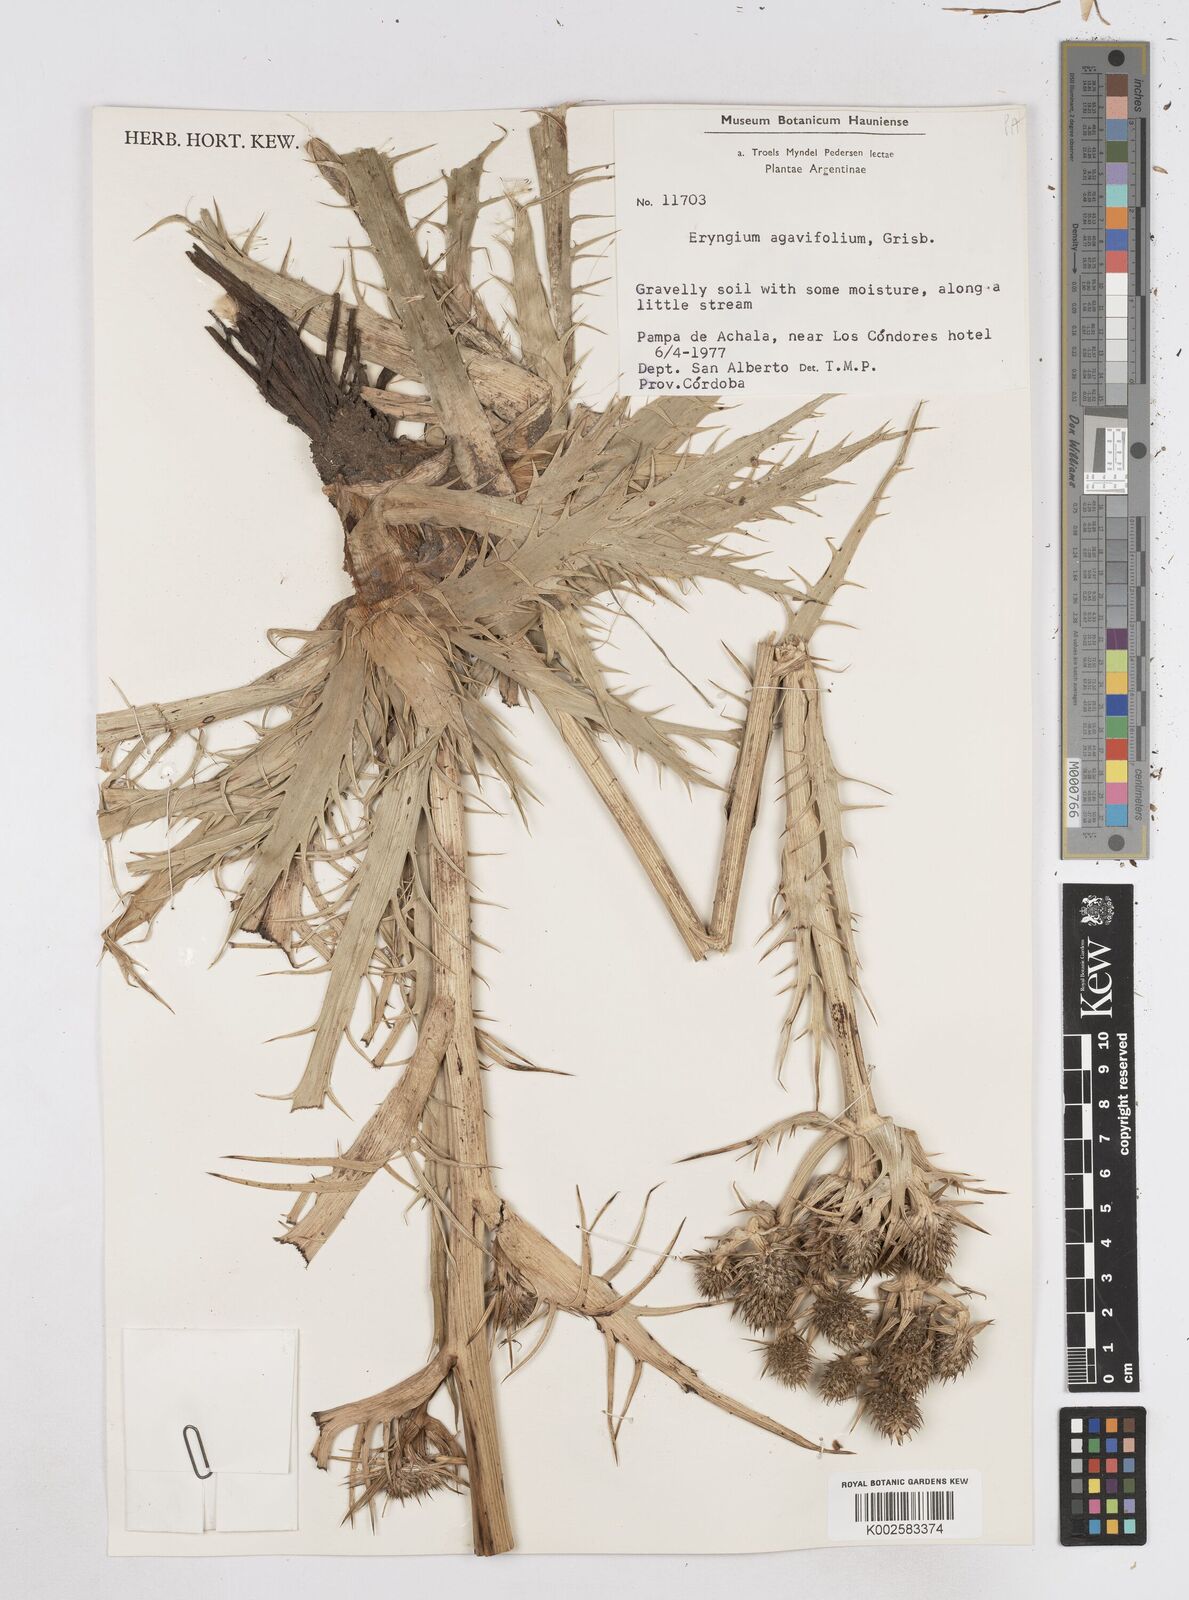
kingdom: Plantae
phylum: Tracheophyta
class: Magnoliopsida
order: Apiales
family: Apiaceae
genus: Eryngium
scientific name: Eryngium agavifolium
